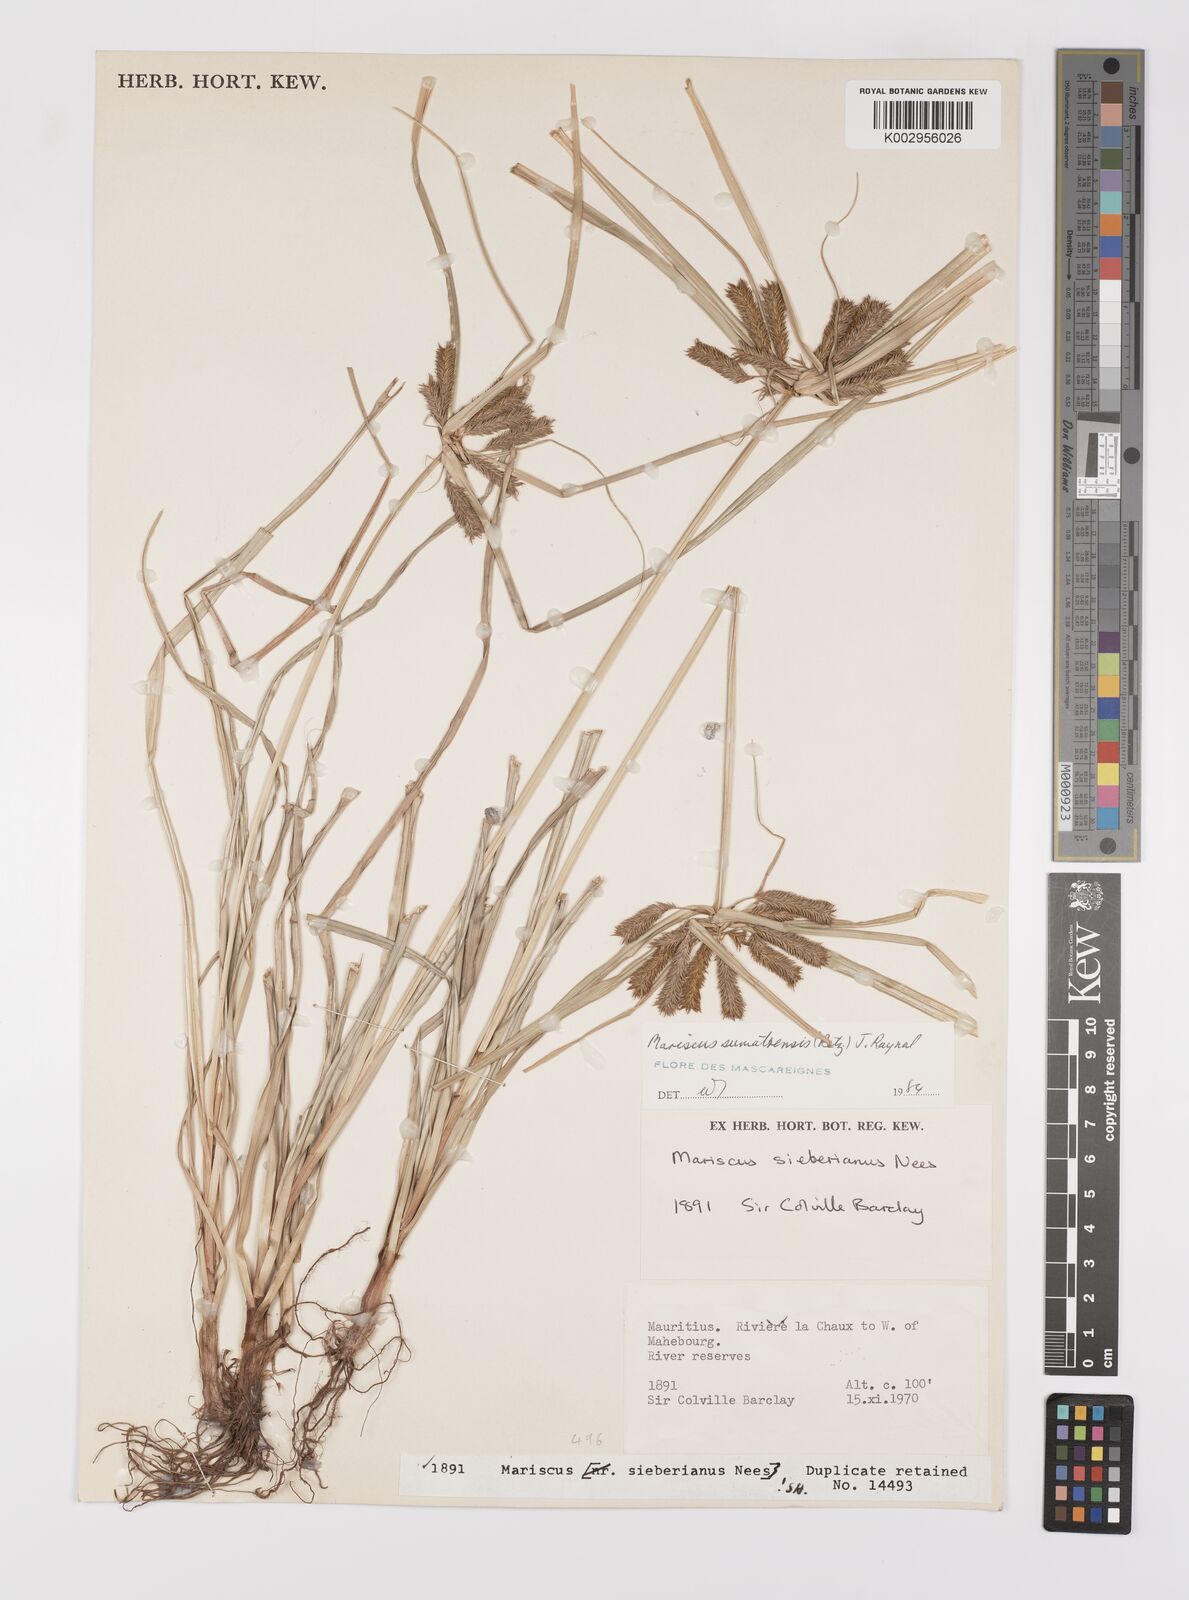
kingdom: Plantae
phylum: Tracheophyta
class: Liliopsida
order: Poales
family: Cyperaceae
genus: Cyperus
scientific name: Cyperus cyperoides
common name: Pacific island flat sedge
